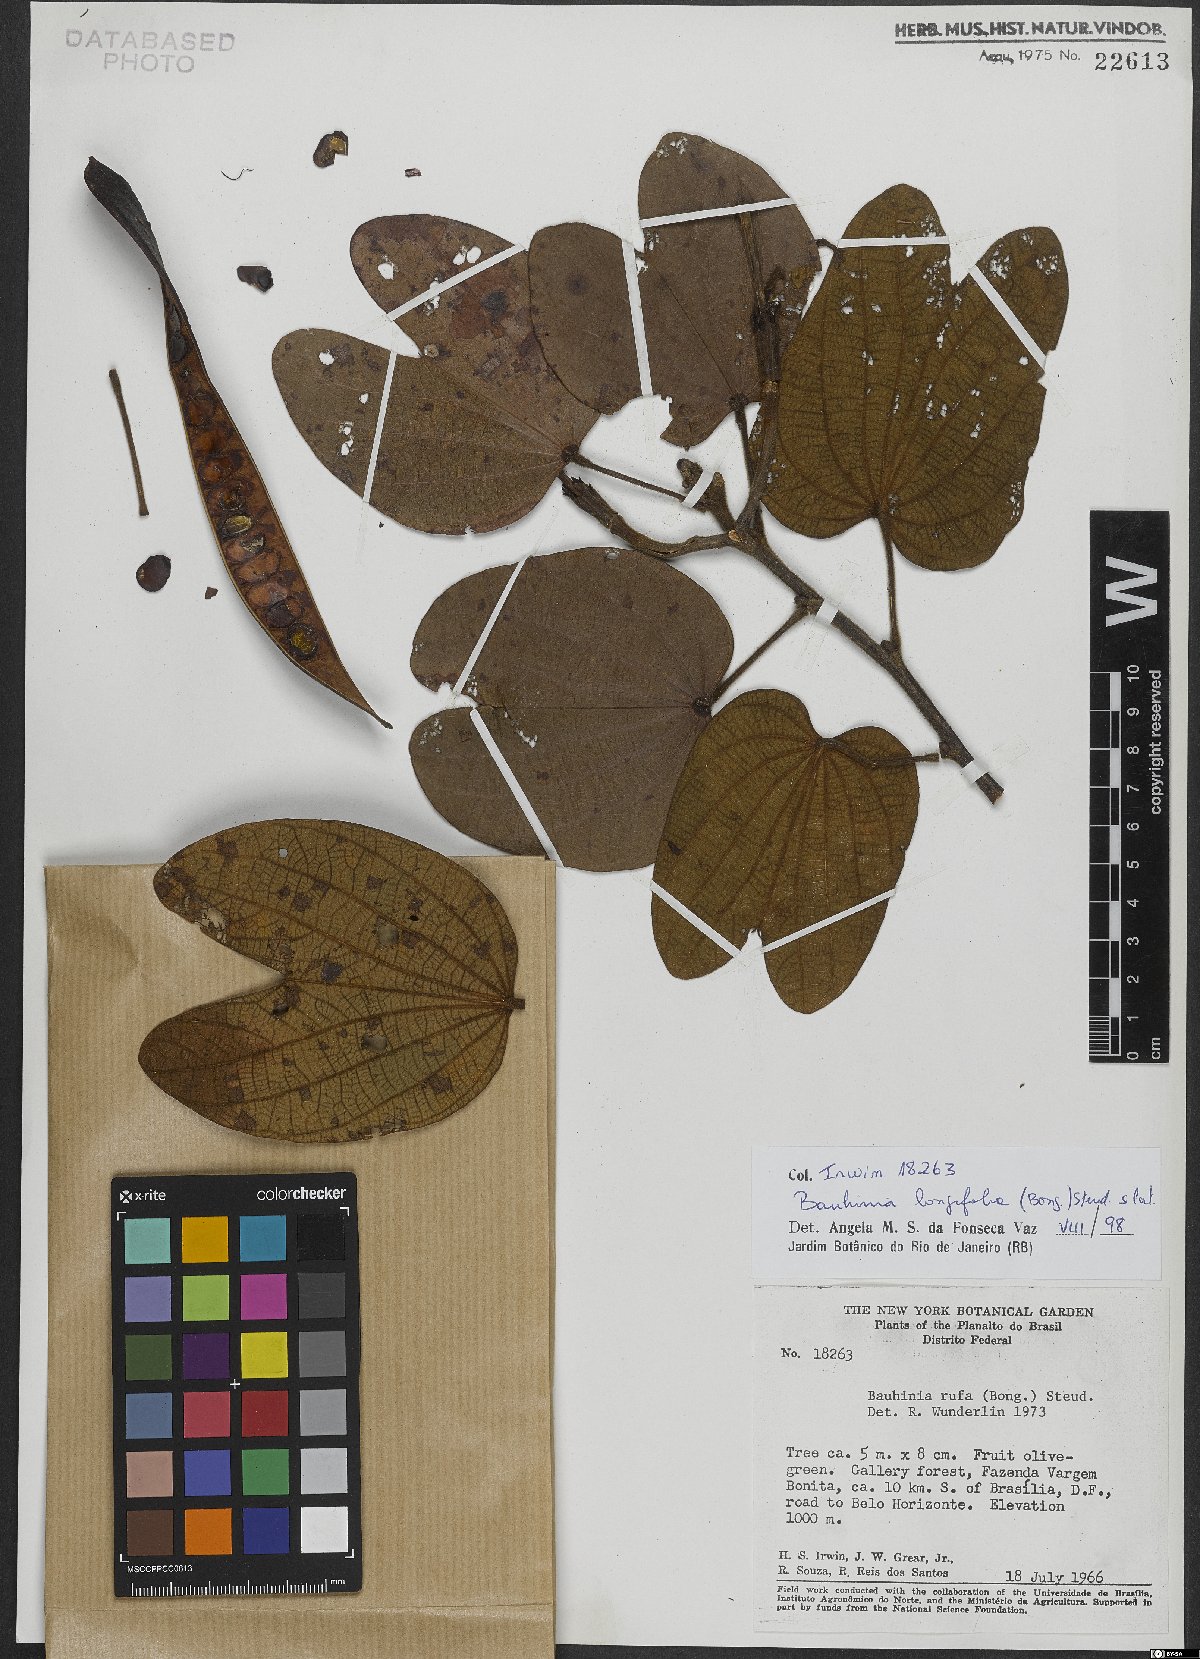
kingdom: Plantae
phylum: Tracheophyta
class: Magnoliopsida
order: Fabales
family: Fabaceae
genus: Bauhinia
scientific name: Bauhinia longifolia
